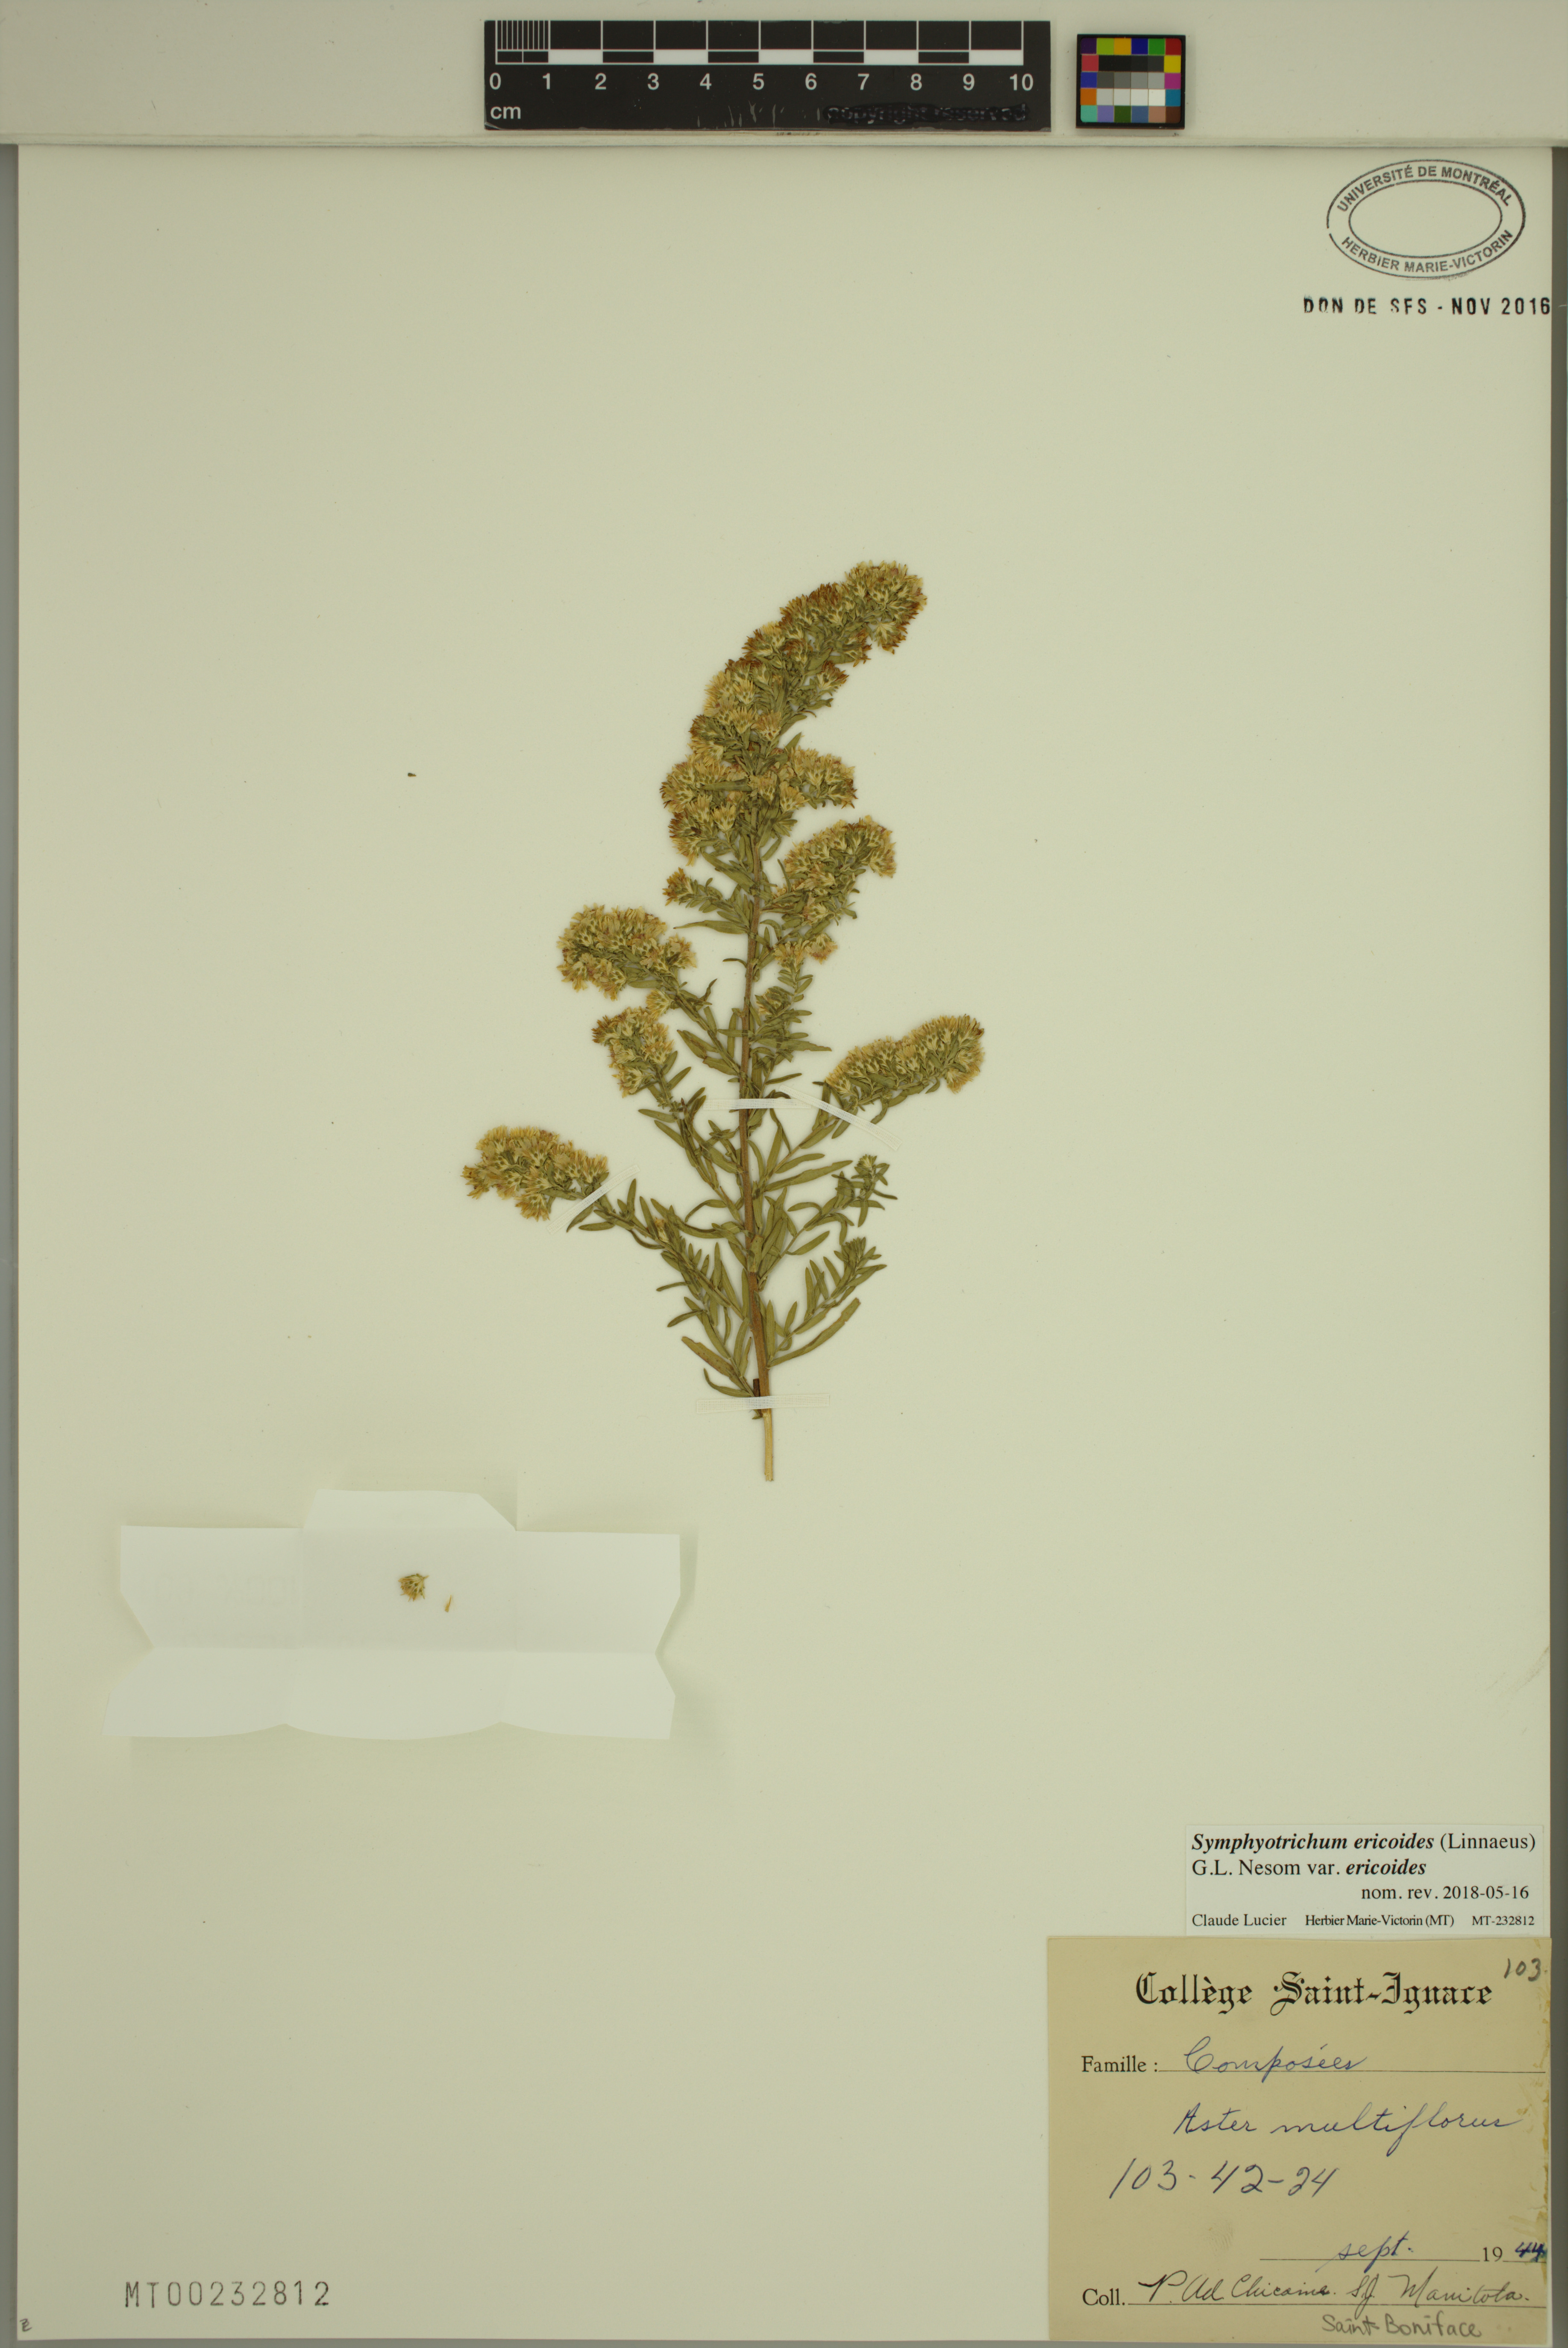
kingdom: Plantae
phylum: Tracheophyta
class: Magnoliopsida
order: Asterales
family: Asteraceae
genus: Symphyotrichum
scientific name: Symphyotrichum ericoides
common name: Heath aster
